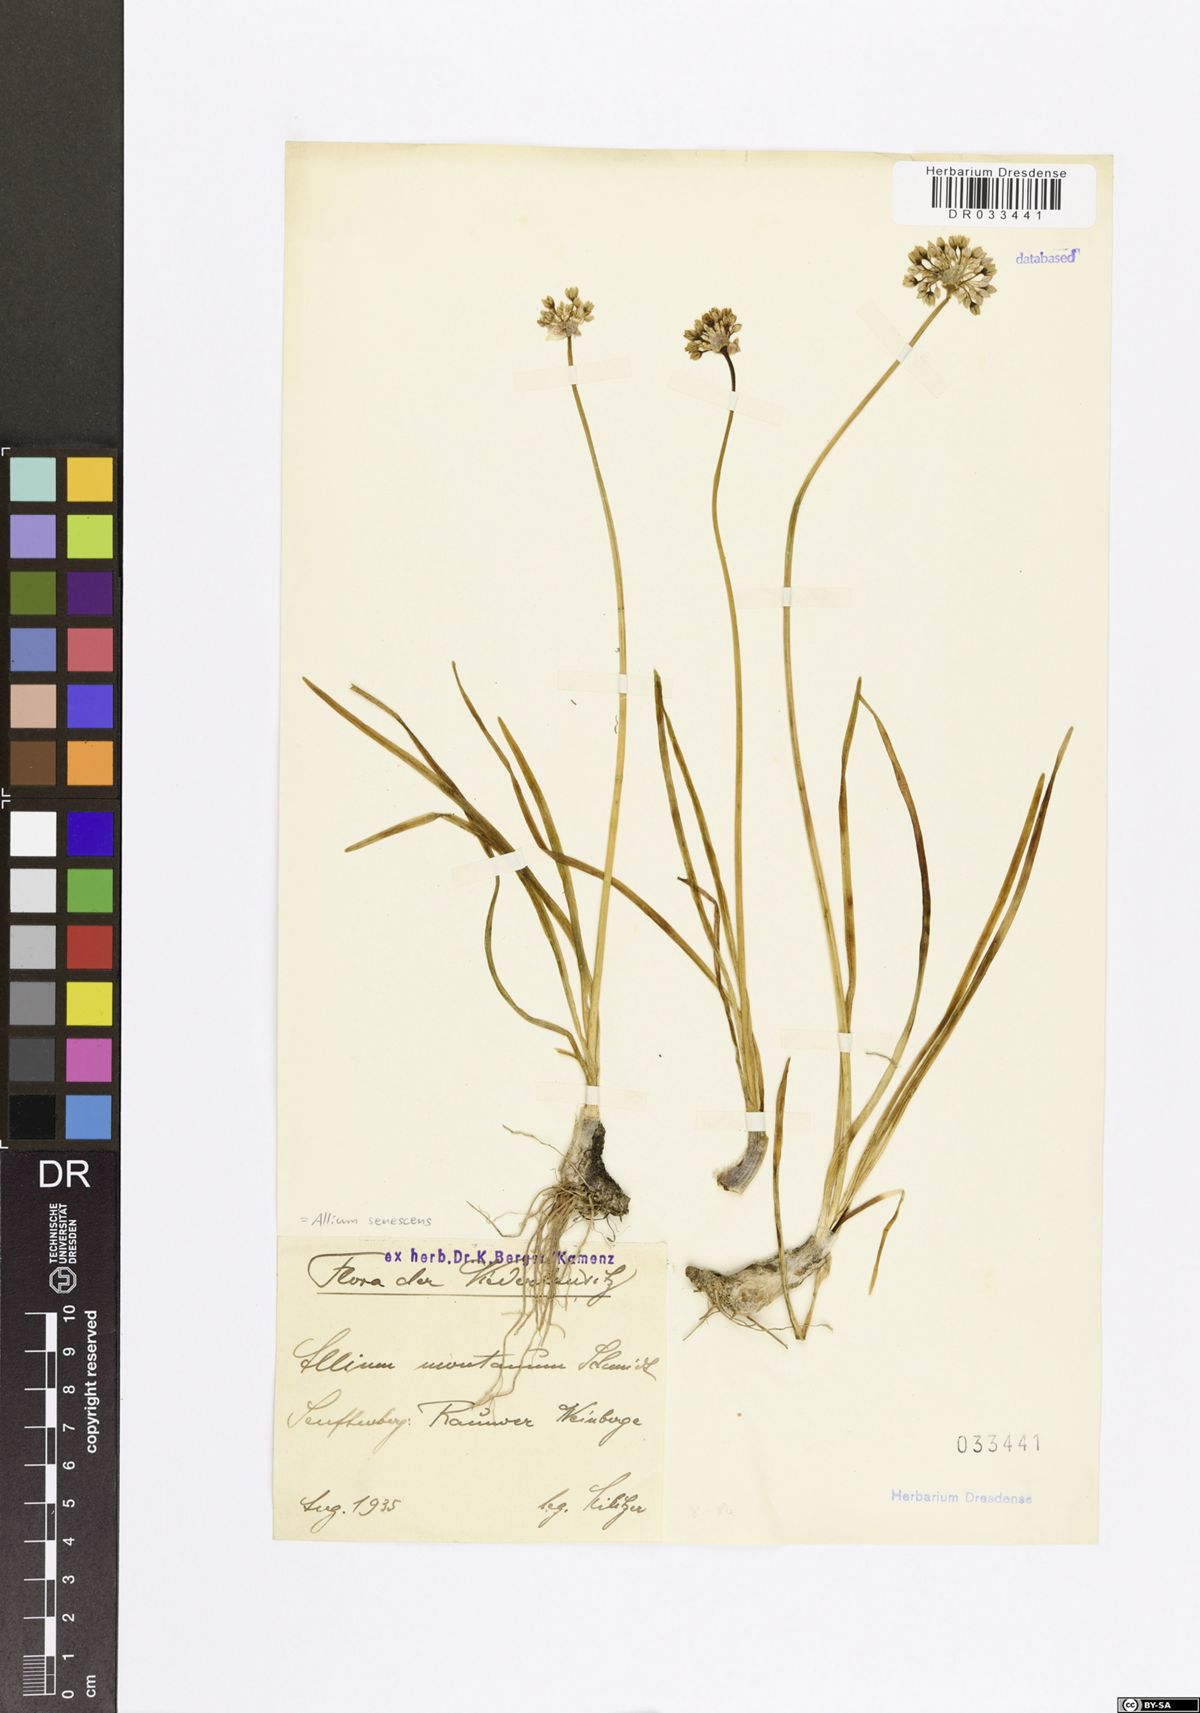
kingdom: Plantae
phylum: Tracheophyta
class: Liliopsida
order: Asparagales
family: Amaryllidaceae
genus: Allium
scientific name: Allium senescens
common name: German garlic
